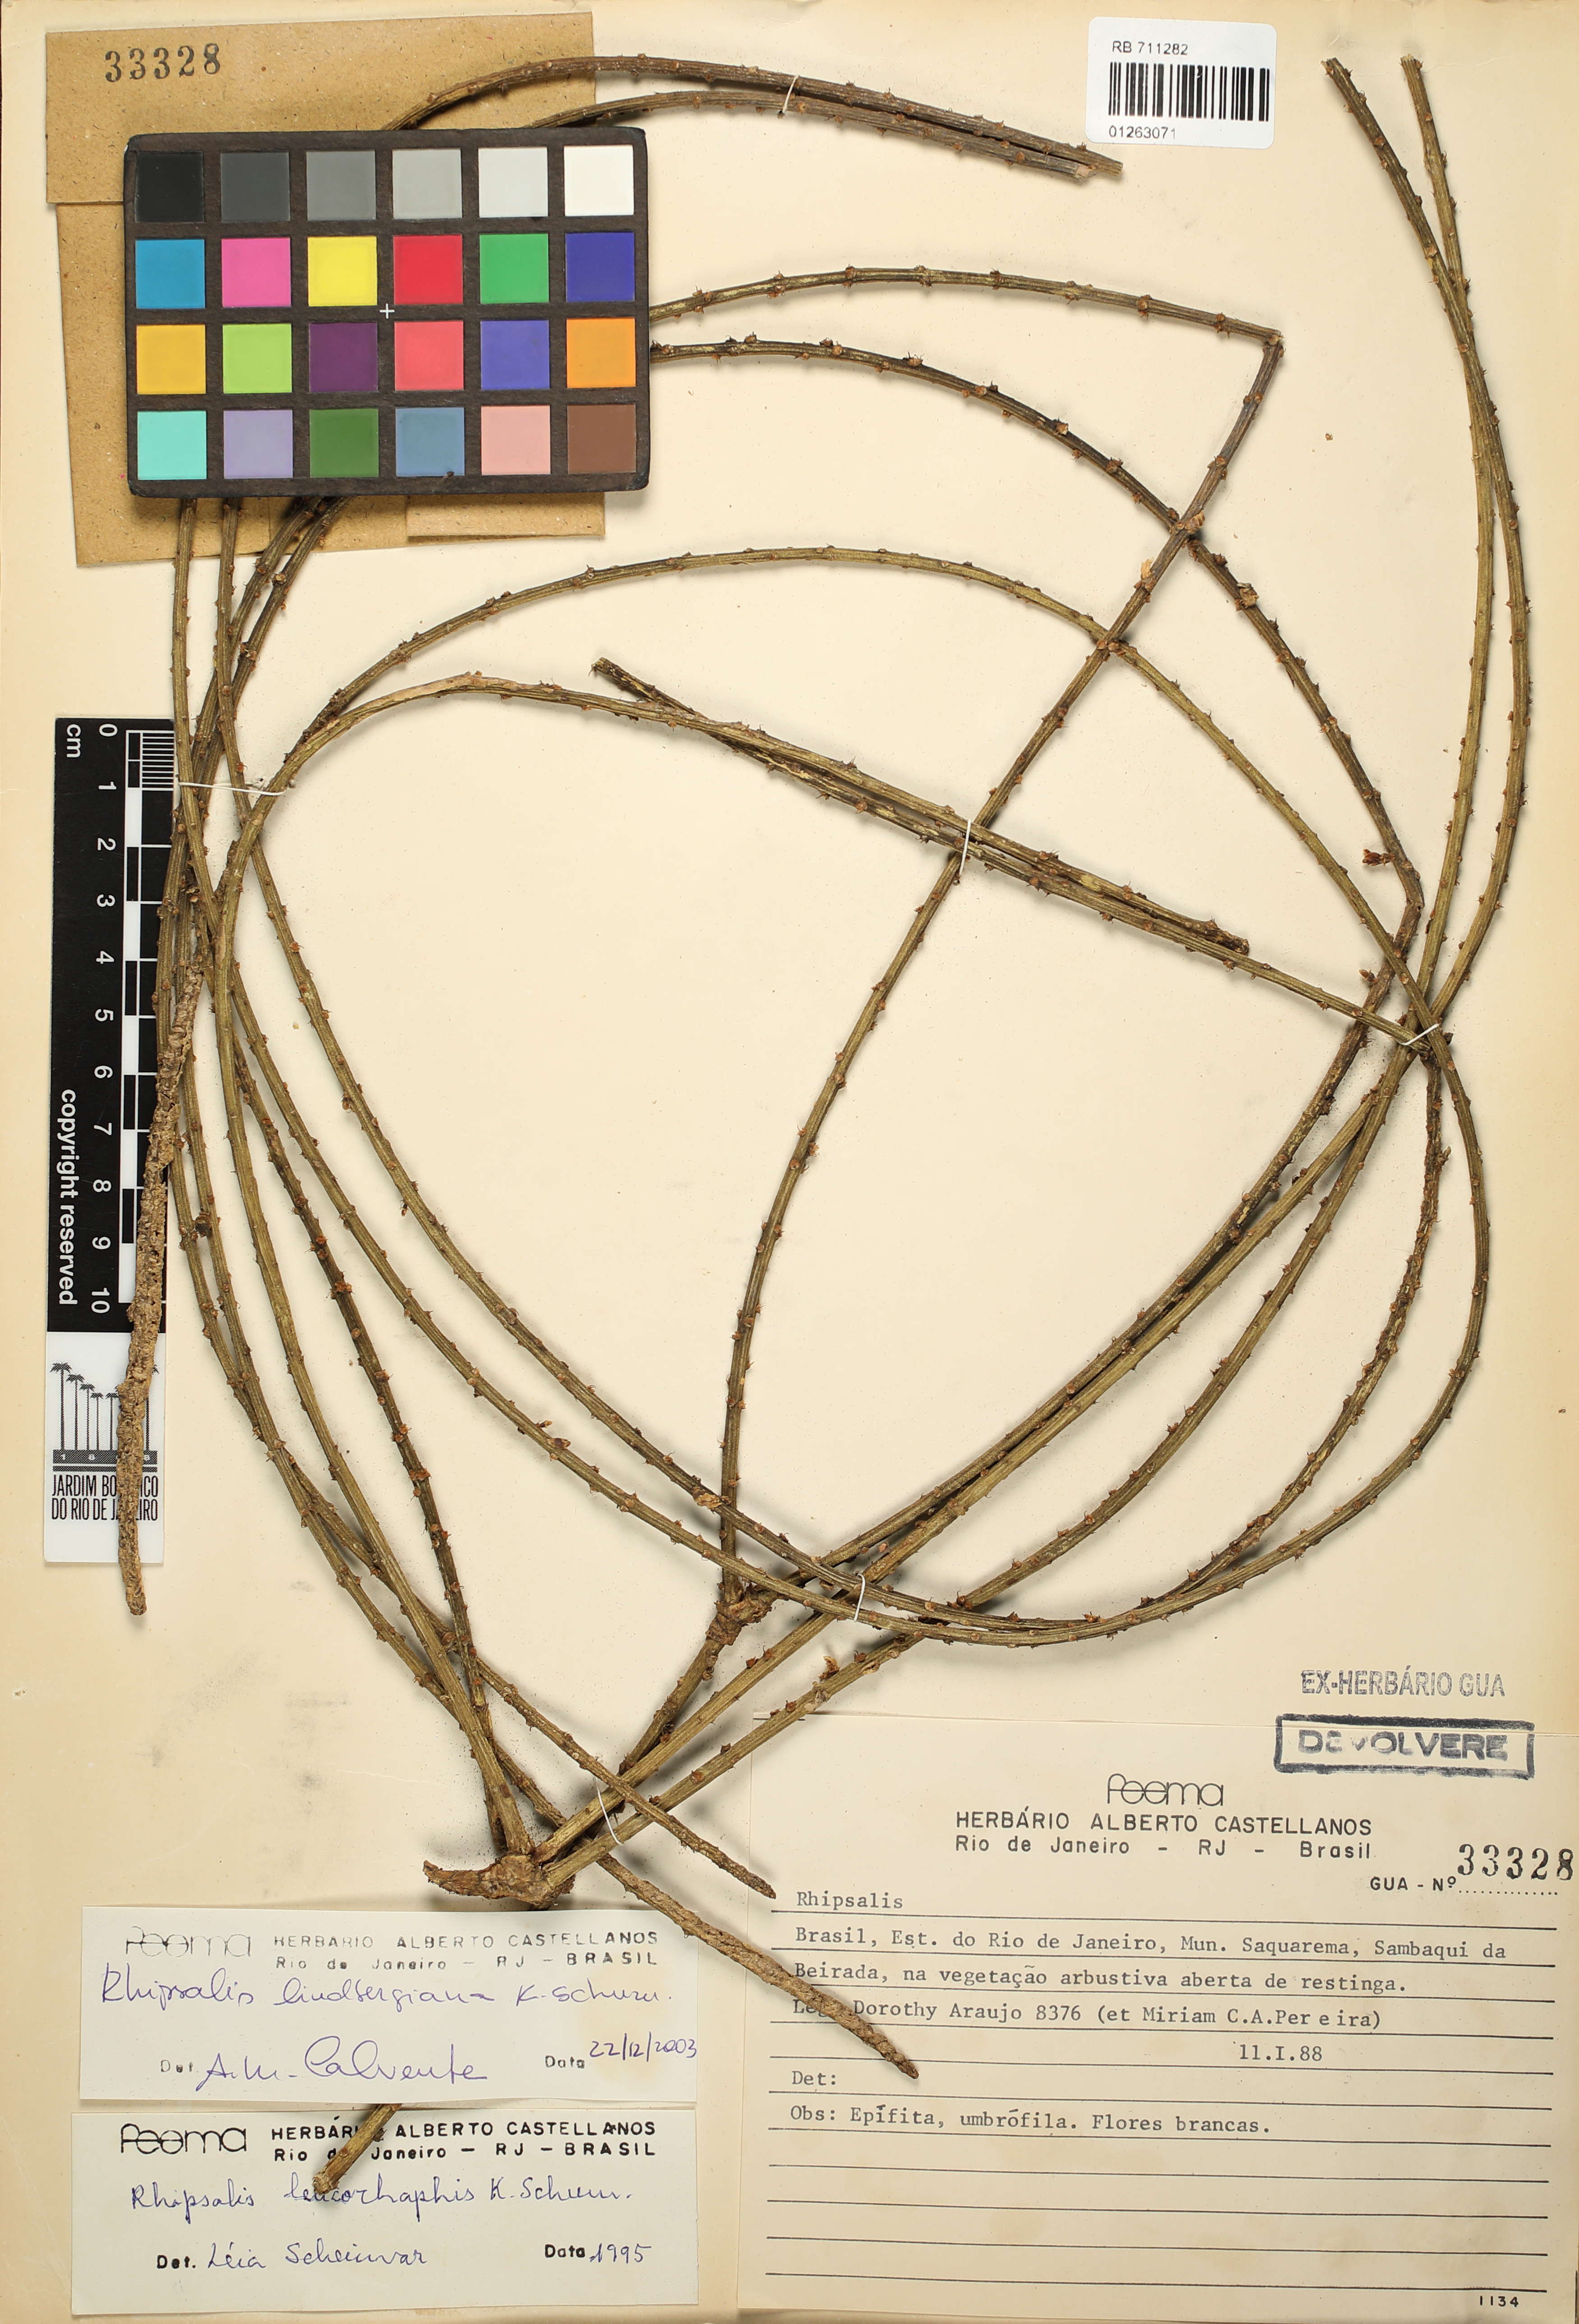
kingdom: Plantae
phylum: Tracheophyta
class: Magnoliopsida
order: Caryophyllales
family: Cactaceae
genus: Rhipsalis
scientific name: Rhipsalis lindbergiana
